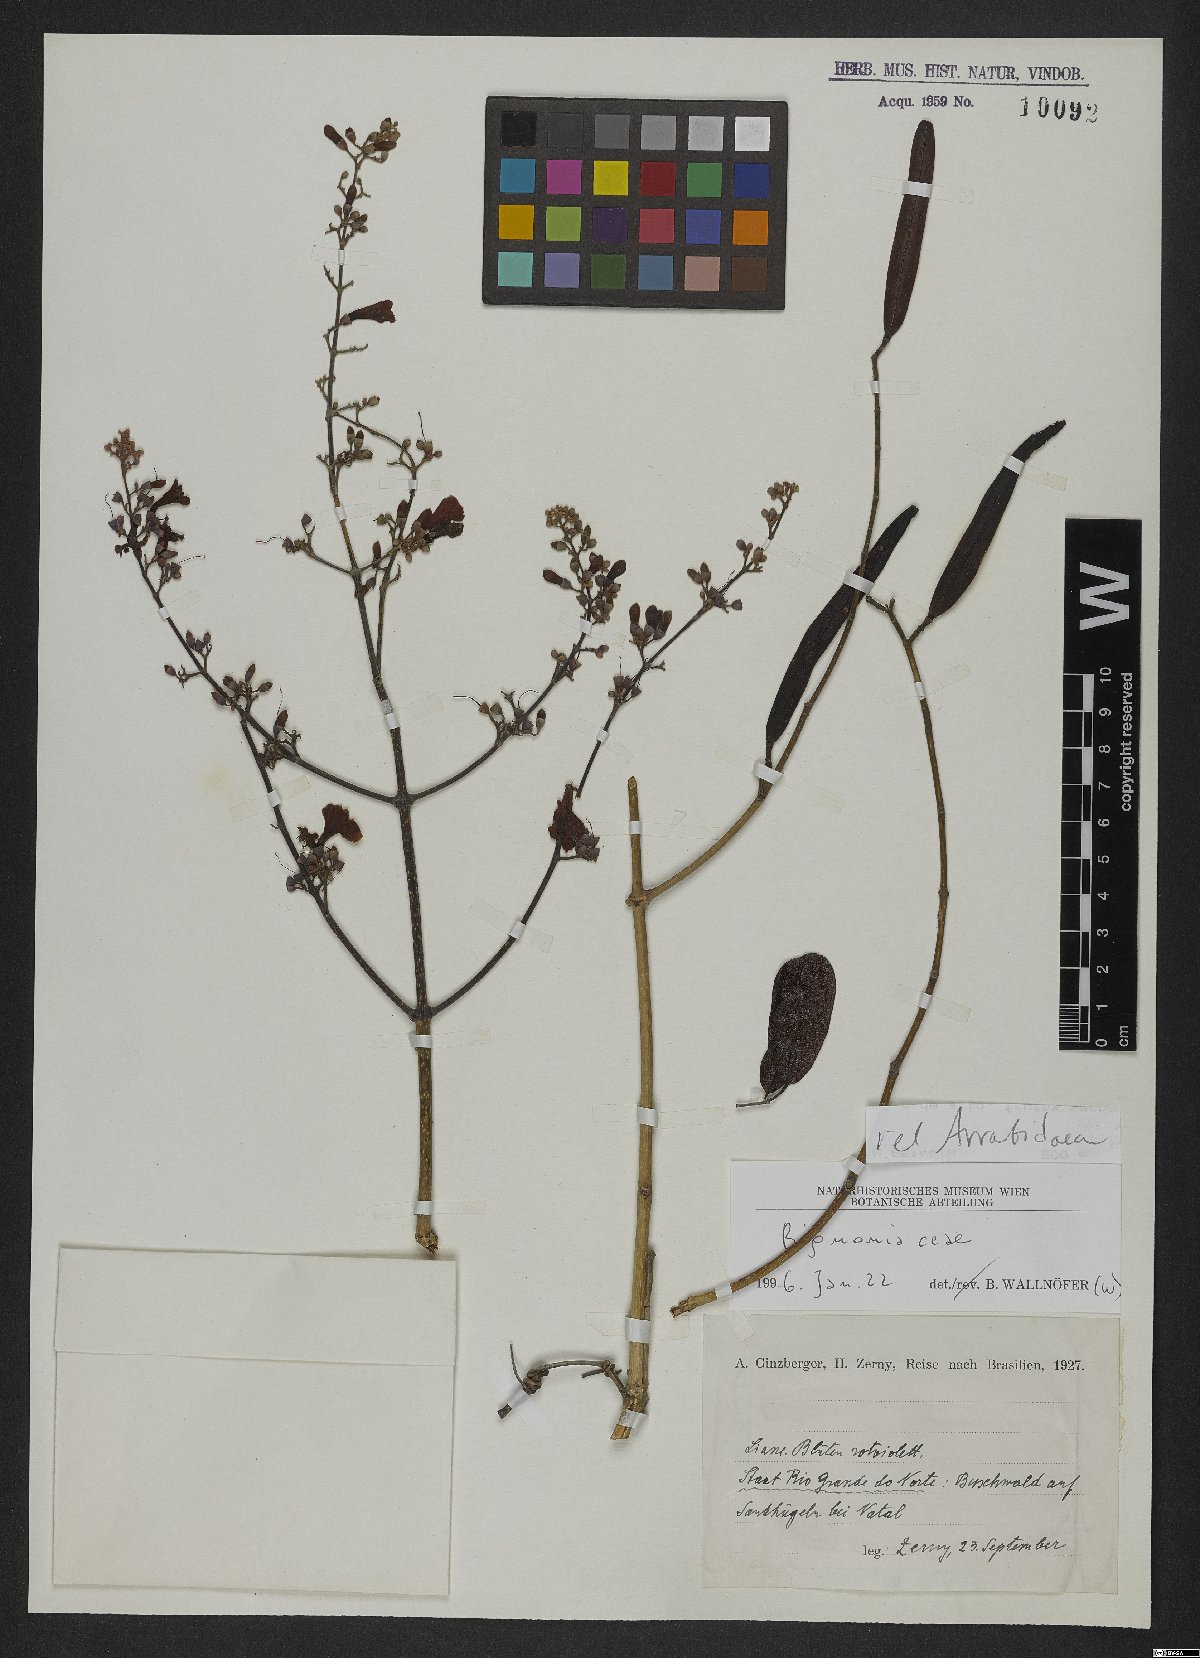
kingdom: Plantae
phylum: Tracheophyta
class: Magnoliopsida
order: Rosales
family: Rhamnaceae
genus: Arrabidaea
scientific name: Arrabidaea
